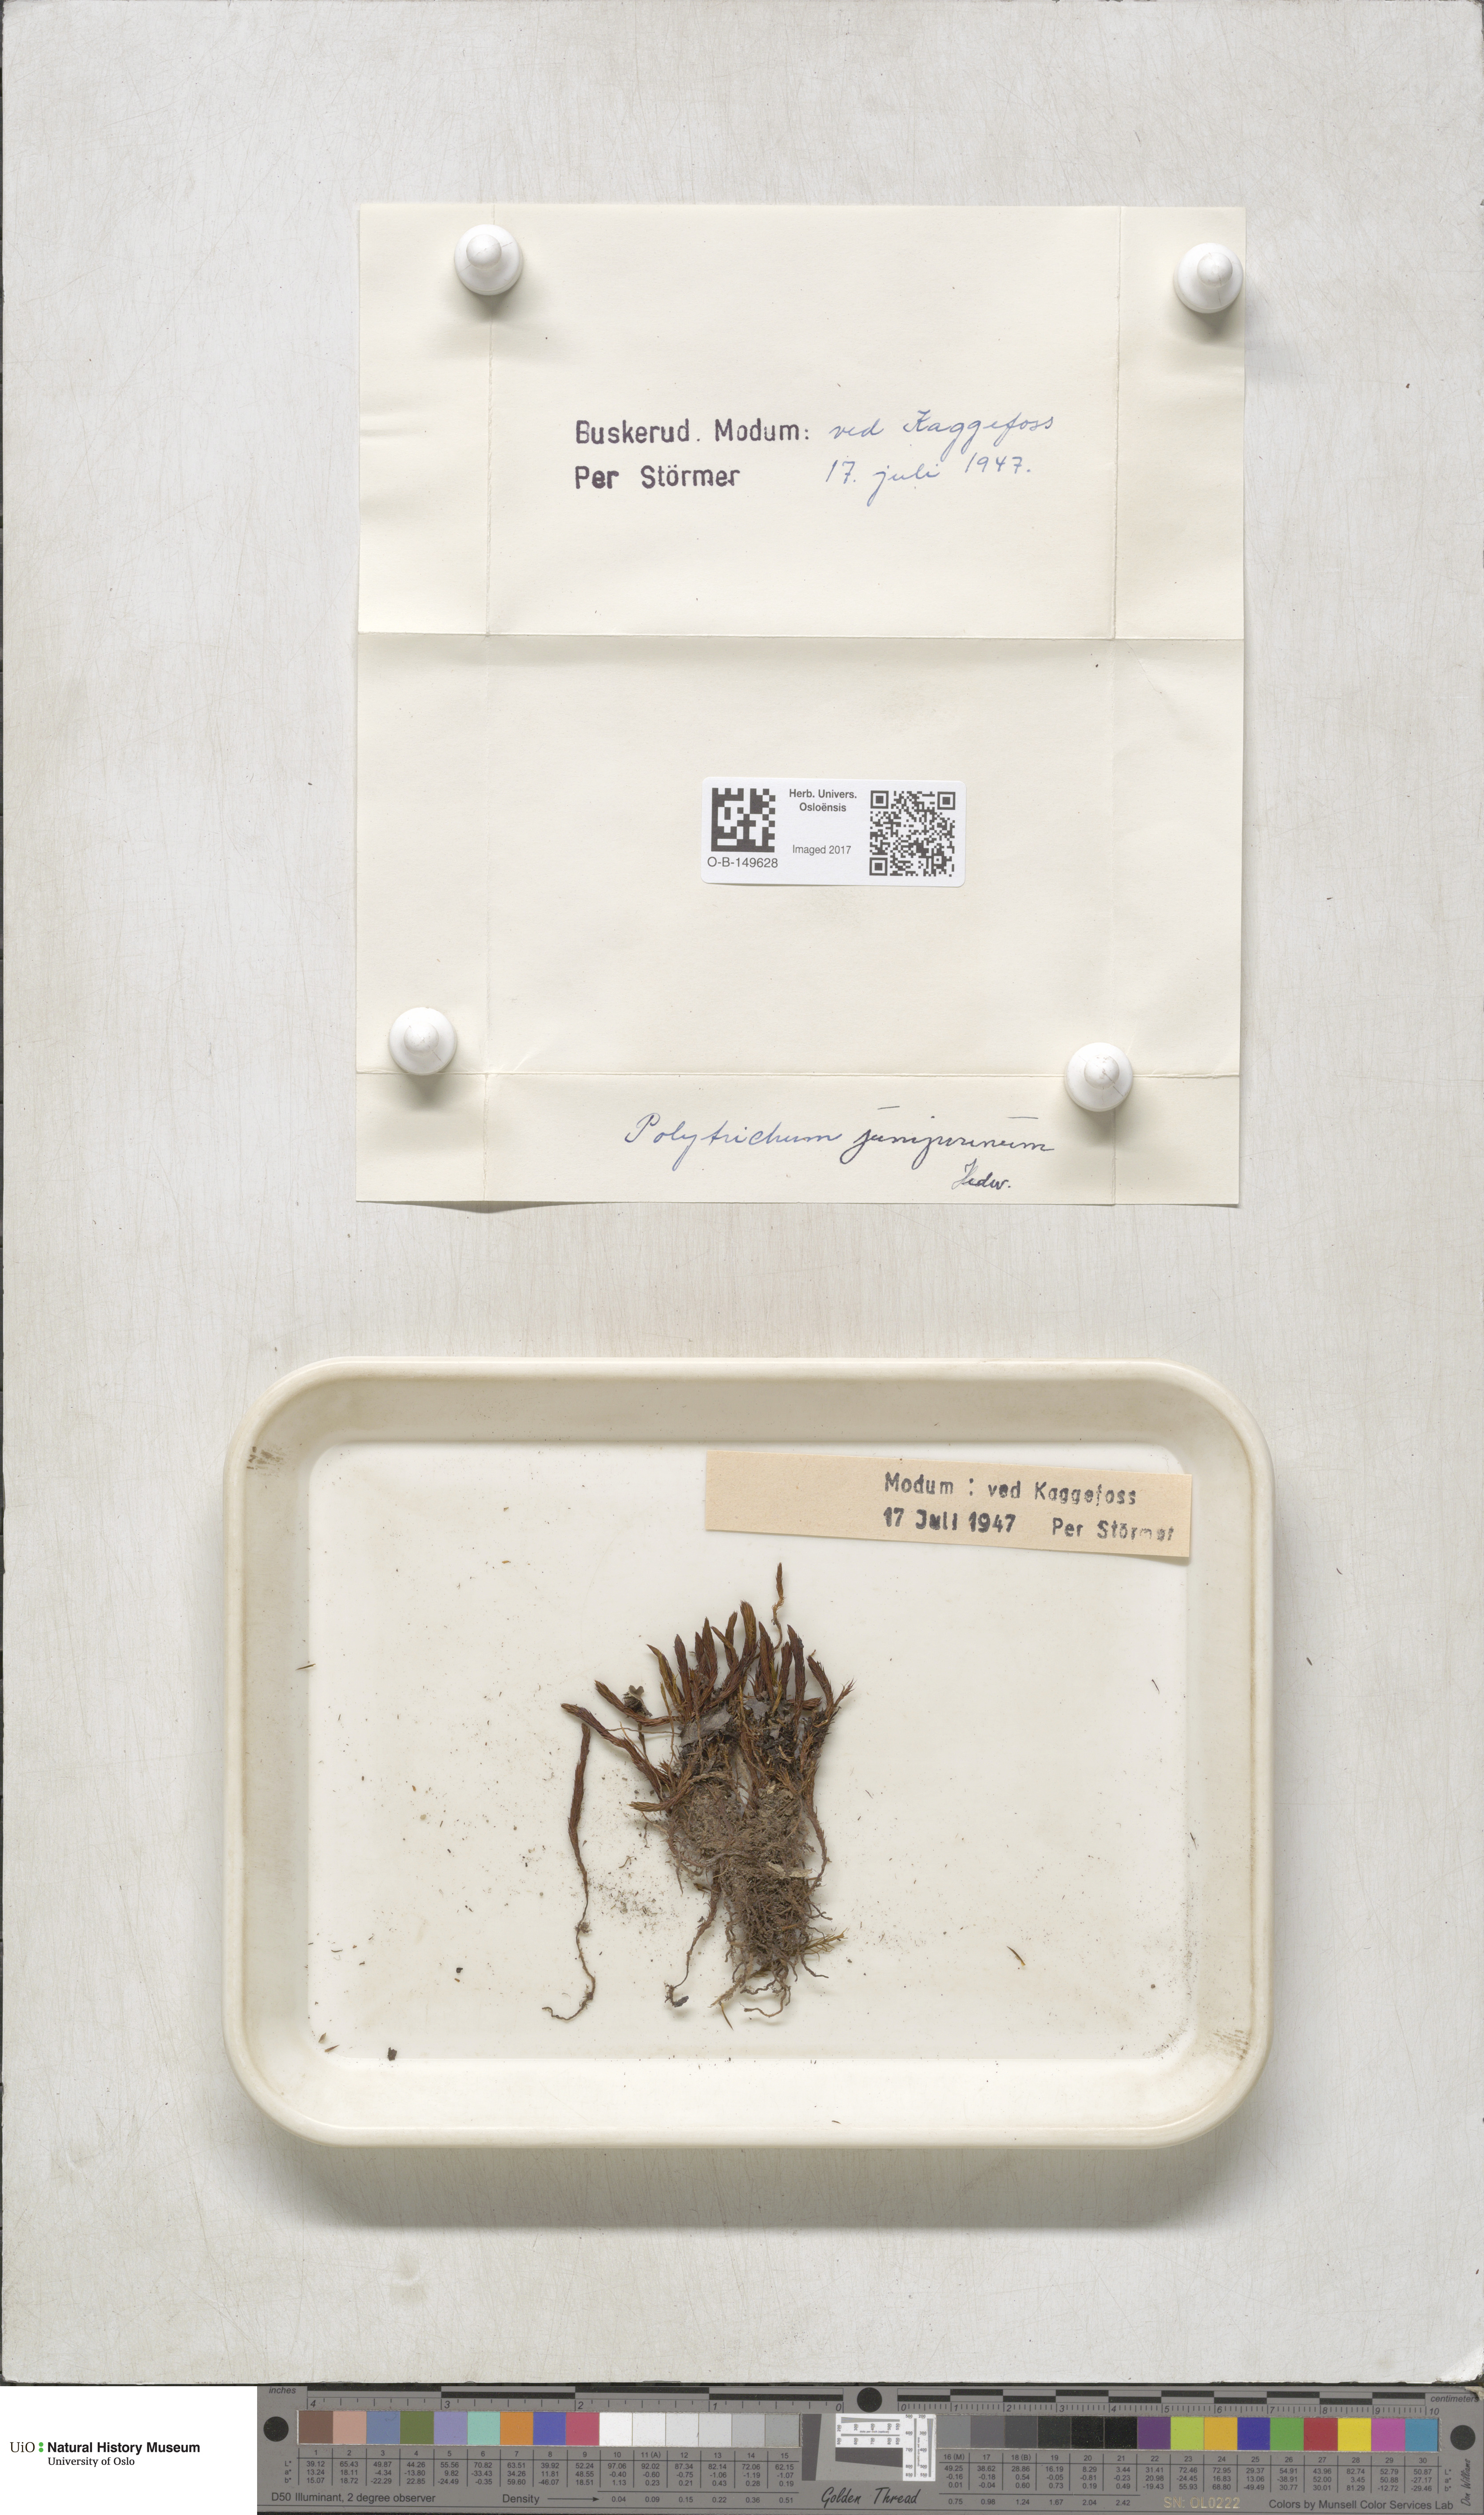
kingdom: Plantae
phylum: Bryophyta
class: Polytrichopsida
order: Polytrichales
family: Polytrichaceae
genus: Polytrichum
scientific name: Polytrichum juniperinum
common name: Juniper haircap moss
